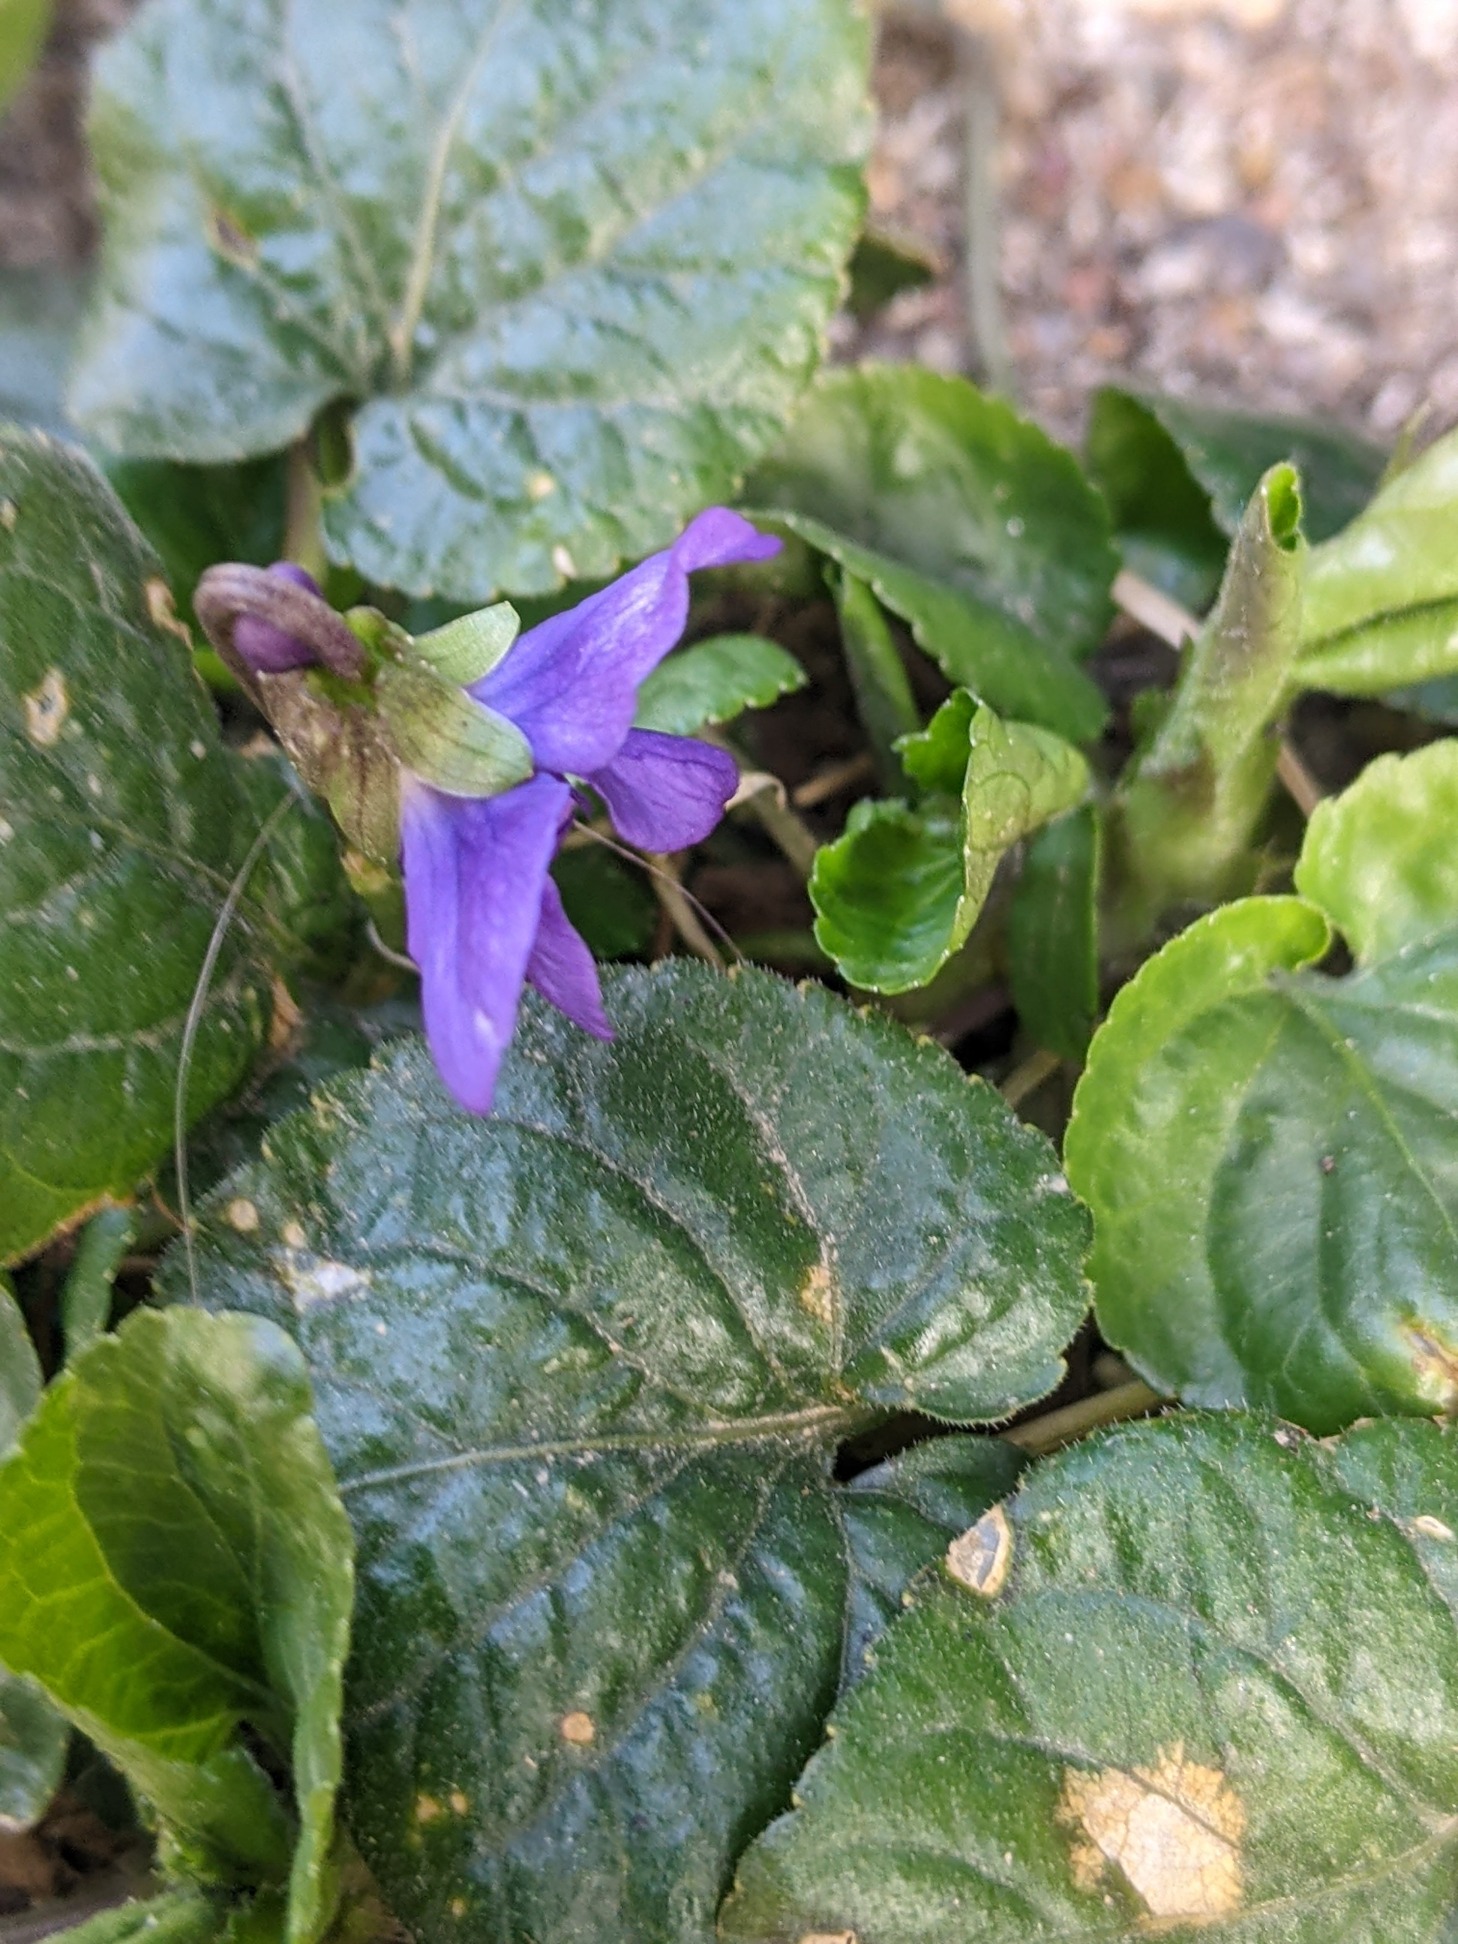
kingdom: Plantae
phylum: Tracheophyta
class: Magnoliopsida
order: Malpighiales
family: Violaceae
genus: Viola
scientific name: Viola odorata
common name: Marts-viol
